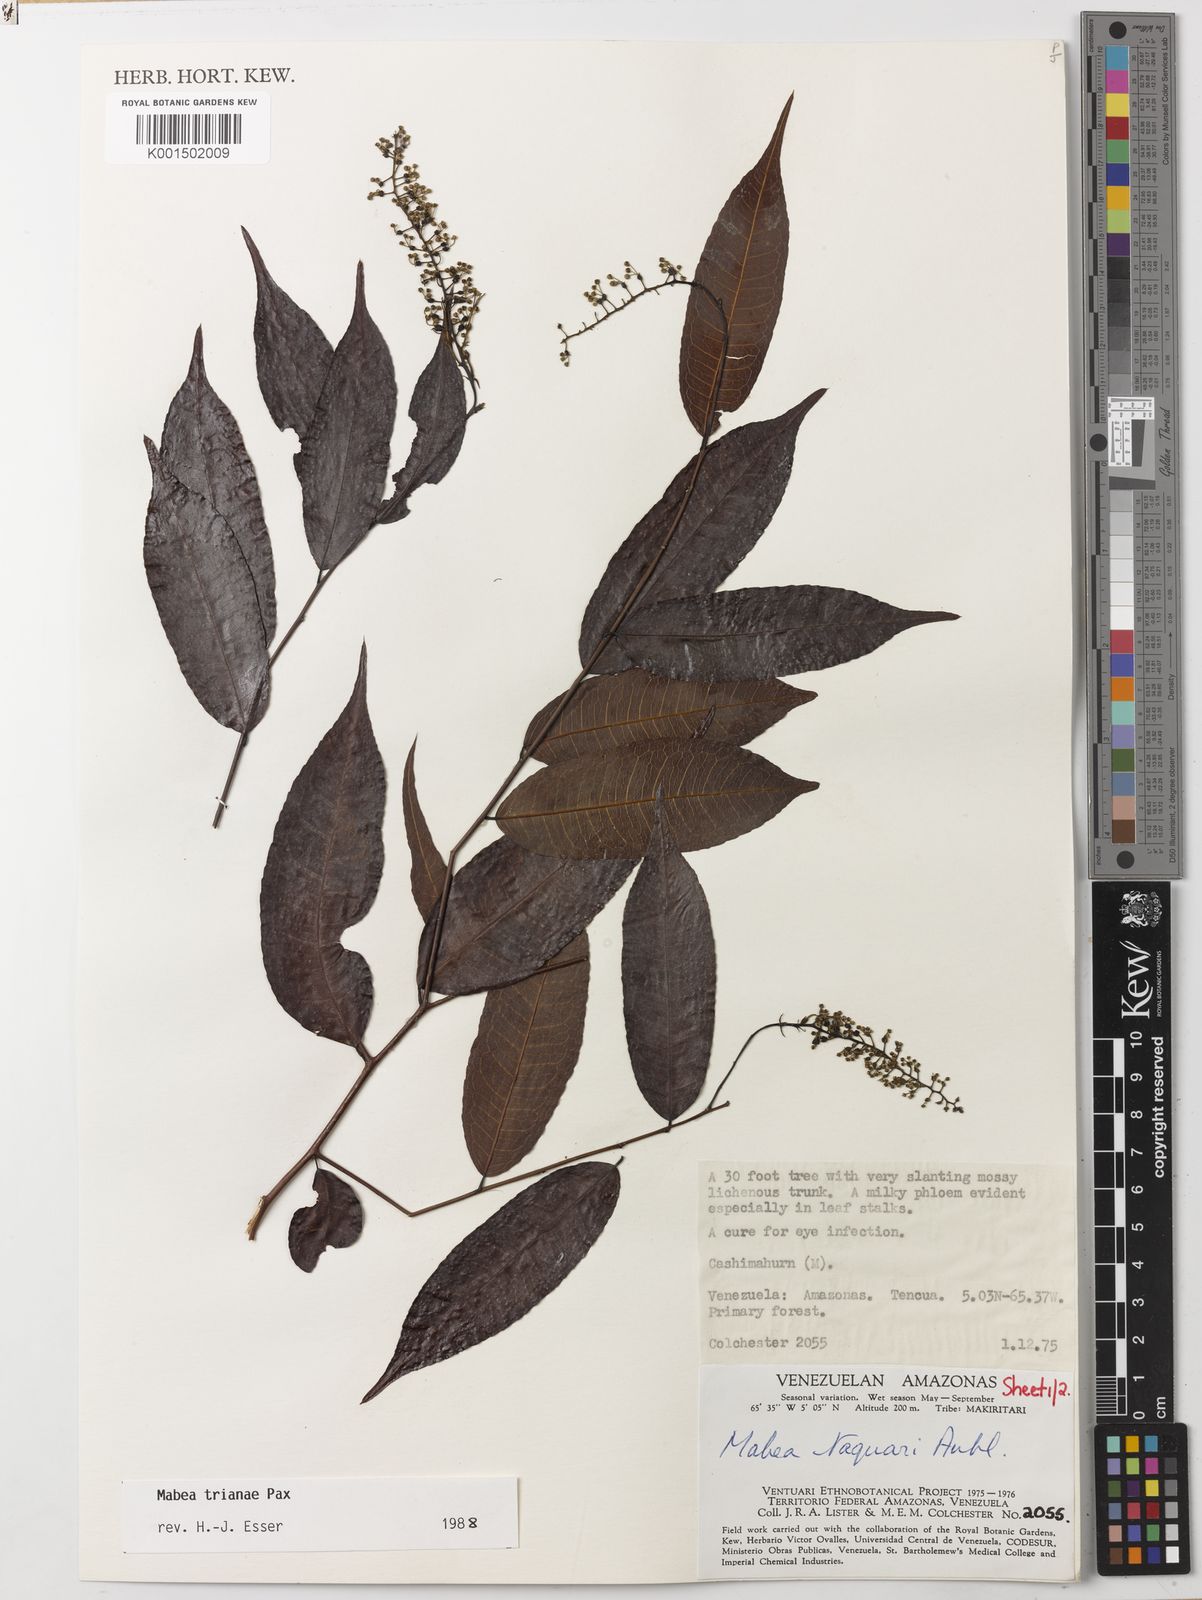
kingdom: Plantae
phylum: Tracheophyta
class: Magnoliopsida
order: Malpighiales
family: Euphorbiaceae
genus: Mabea
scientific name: Mabea trianae
